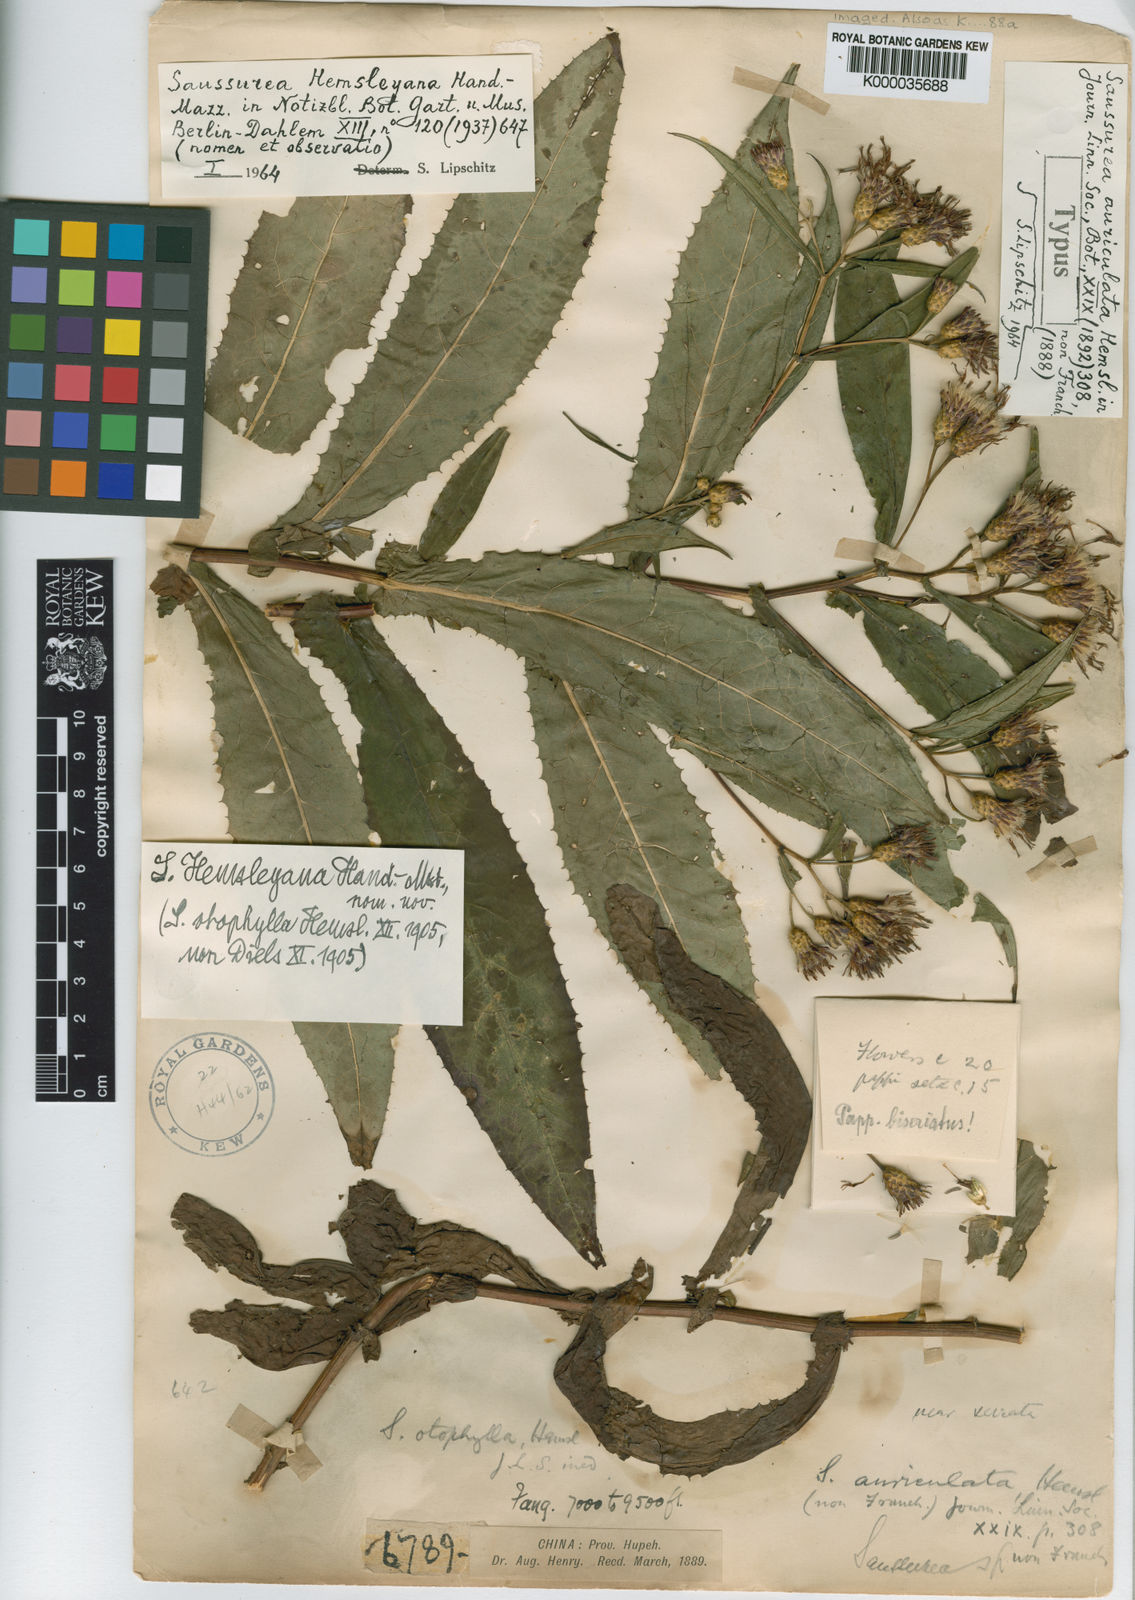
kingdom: Plantae
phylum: Tracheophyta
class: Magnoliopsida
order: Asterales
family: Asteraceae
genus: Saussurea
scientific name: Saussurea macrota
